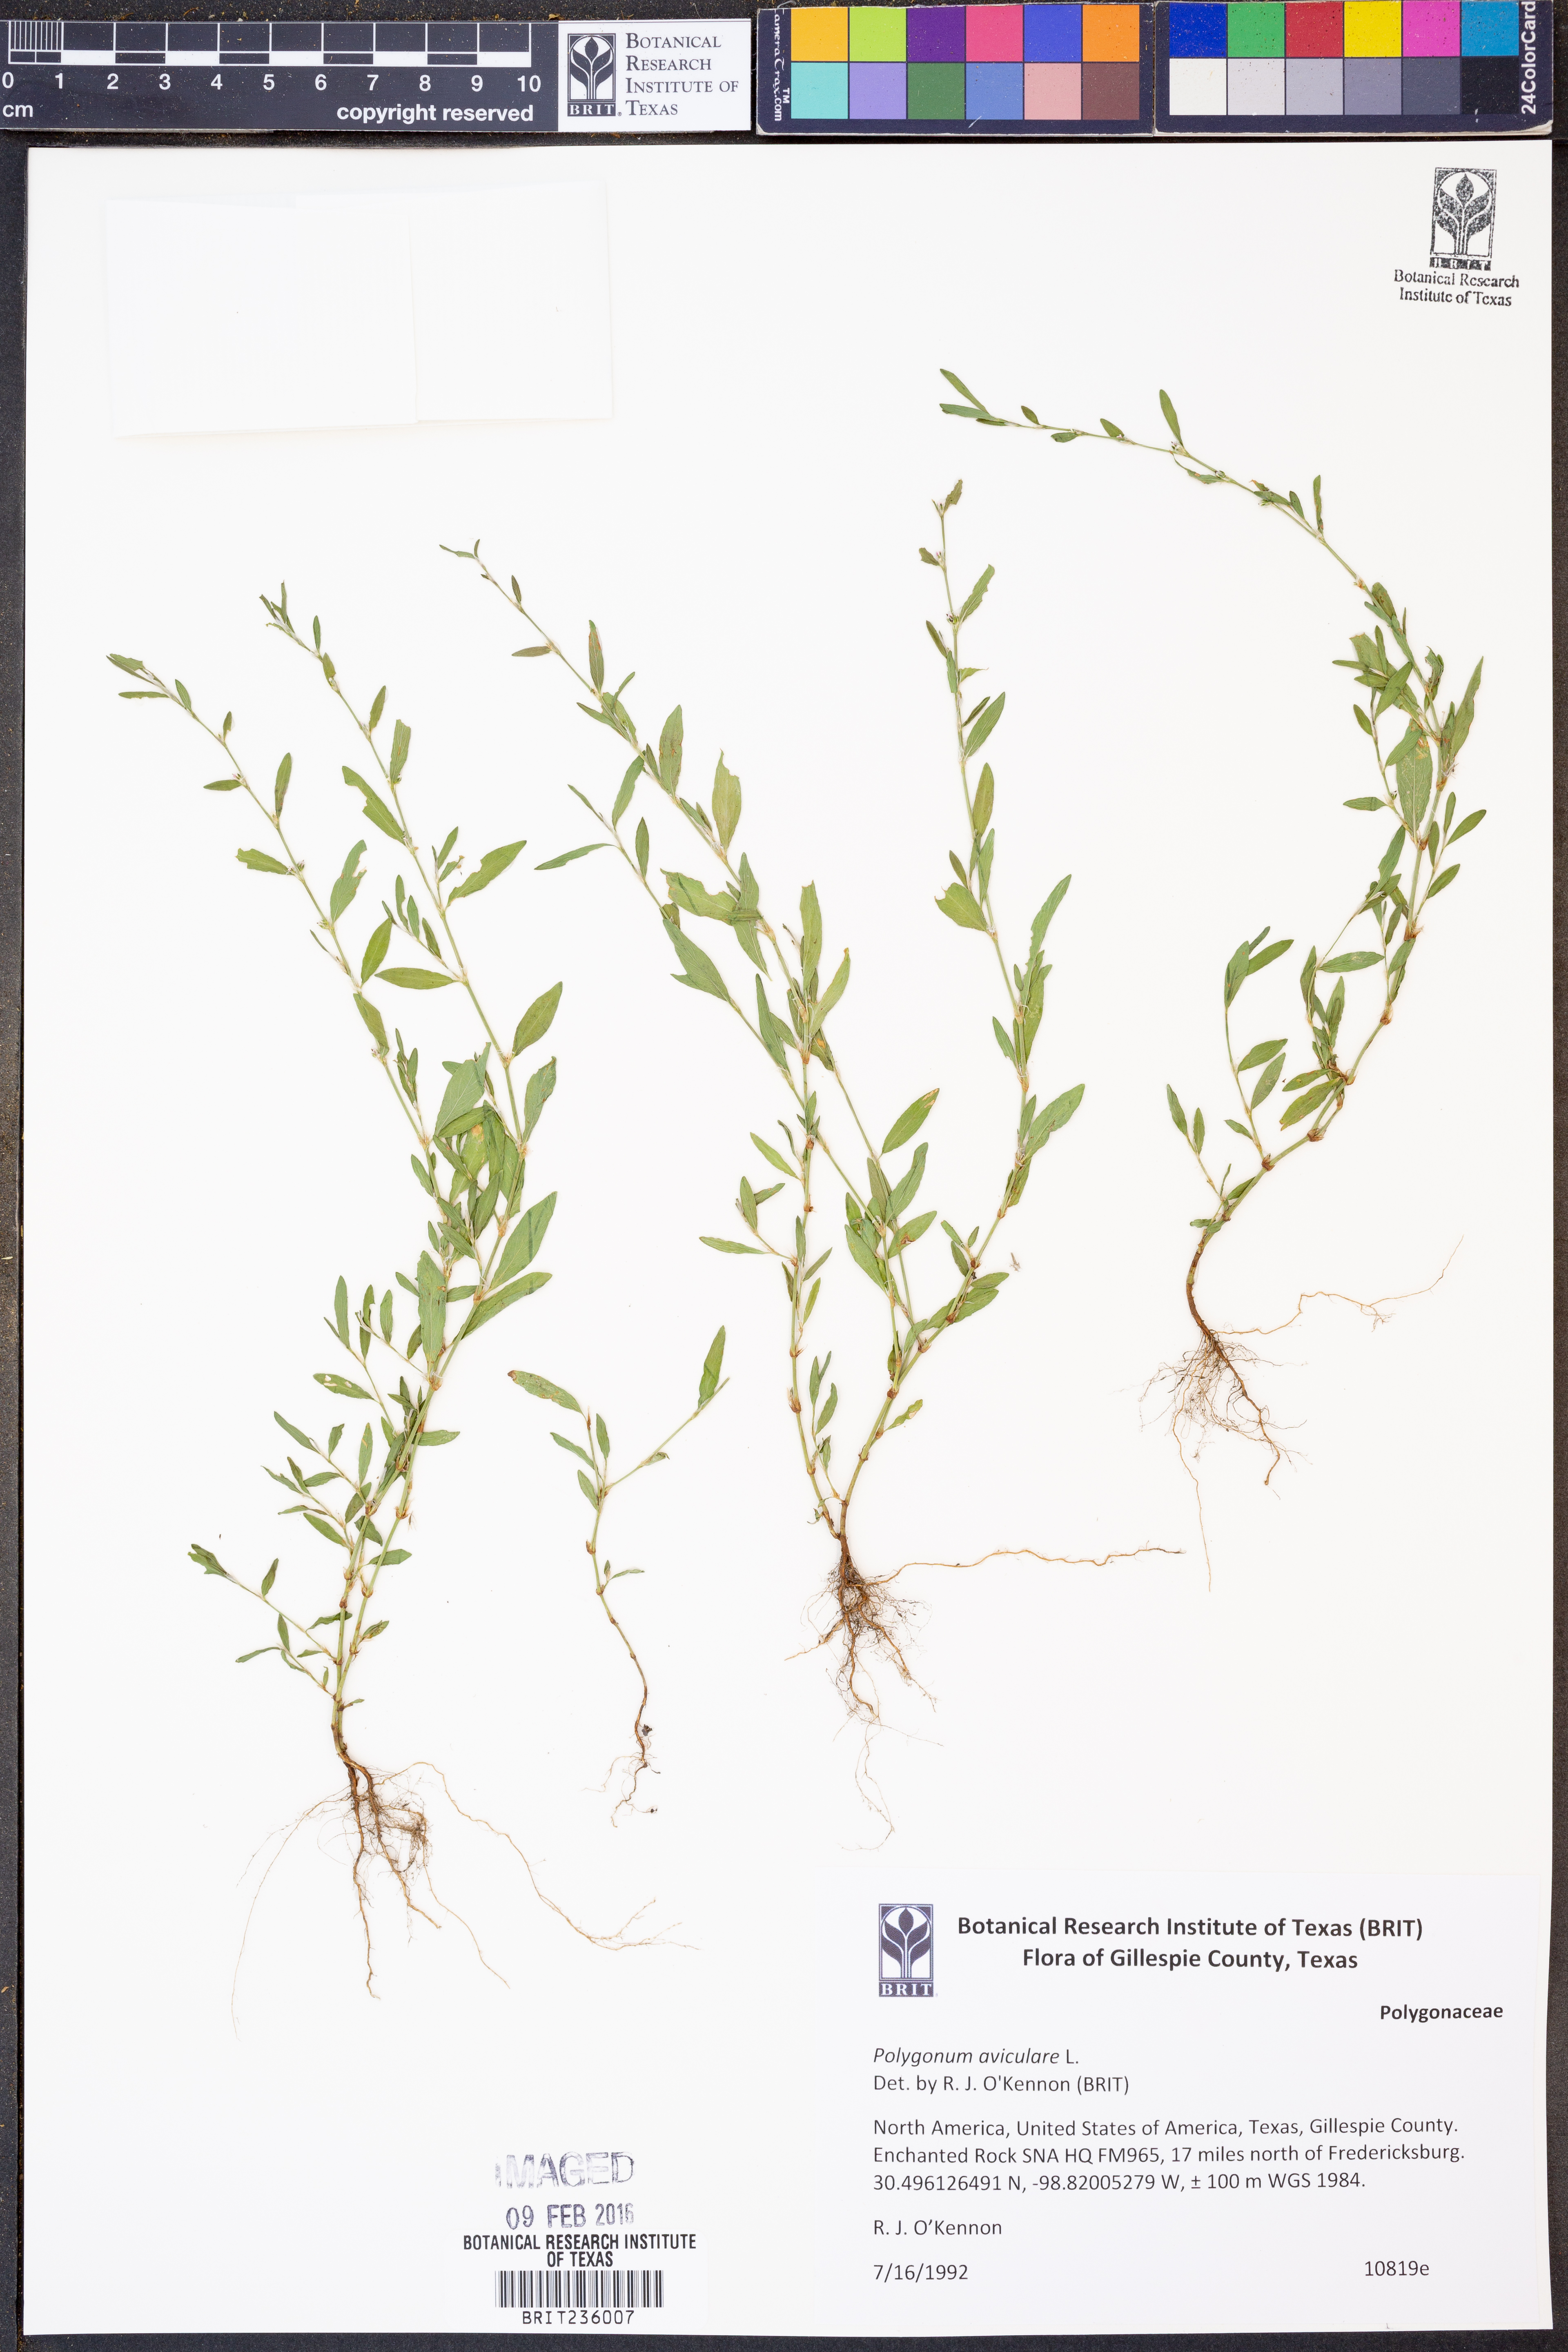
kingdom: Plantae
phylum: Tracheophyta
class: Magnoliopsida
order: Caryophyllales
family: Polygonaceae
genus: Polygonum
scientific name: Polygonum aviculare
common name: Prostrate knotweed
